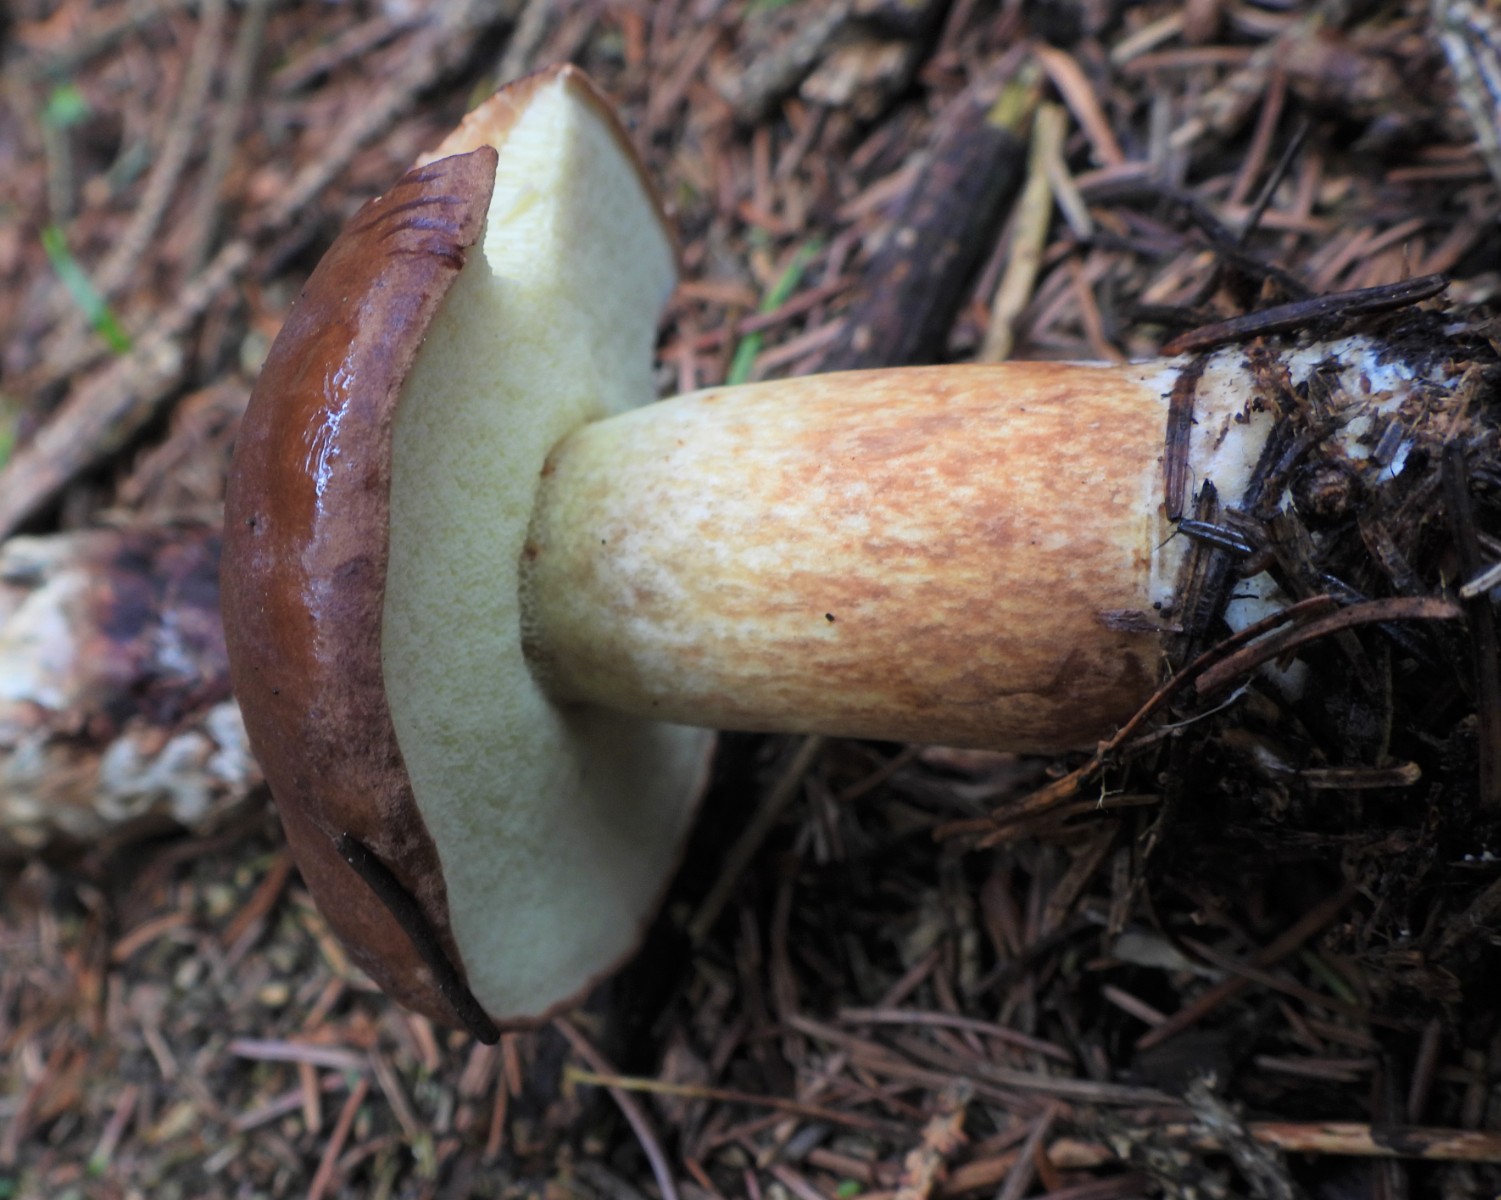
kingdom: Fungi
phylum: Basidiomycota
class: Agaricomycetes
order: Boletales
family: Boletaceae
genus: Imleria
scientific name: Imleria badia
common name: brunstokket rørhat
